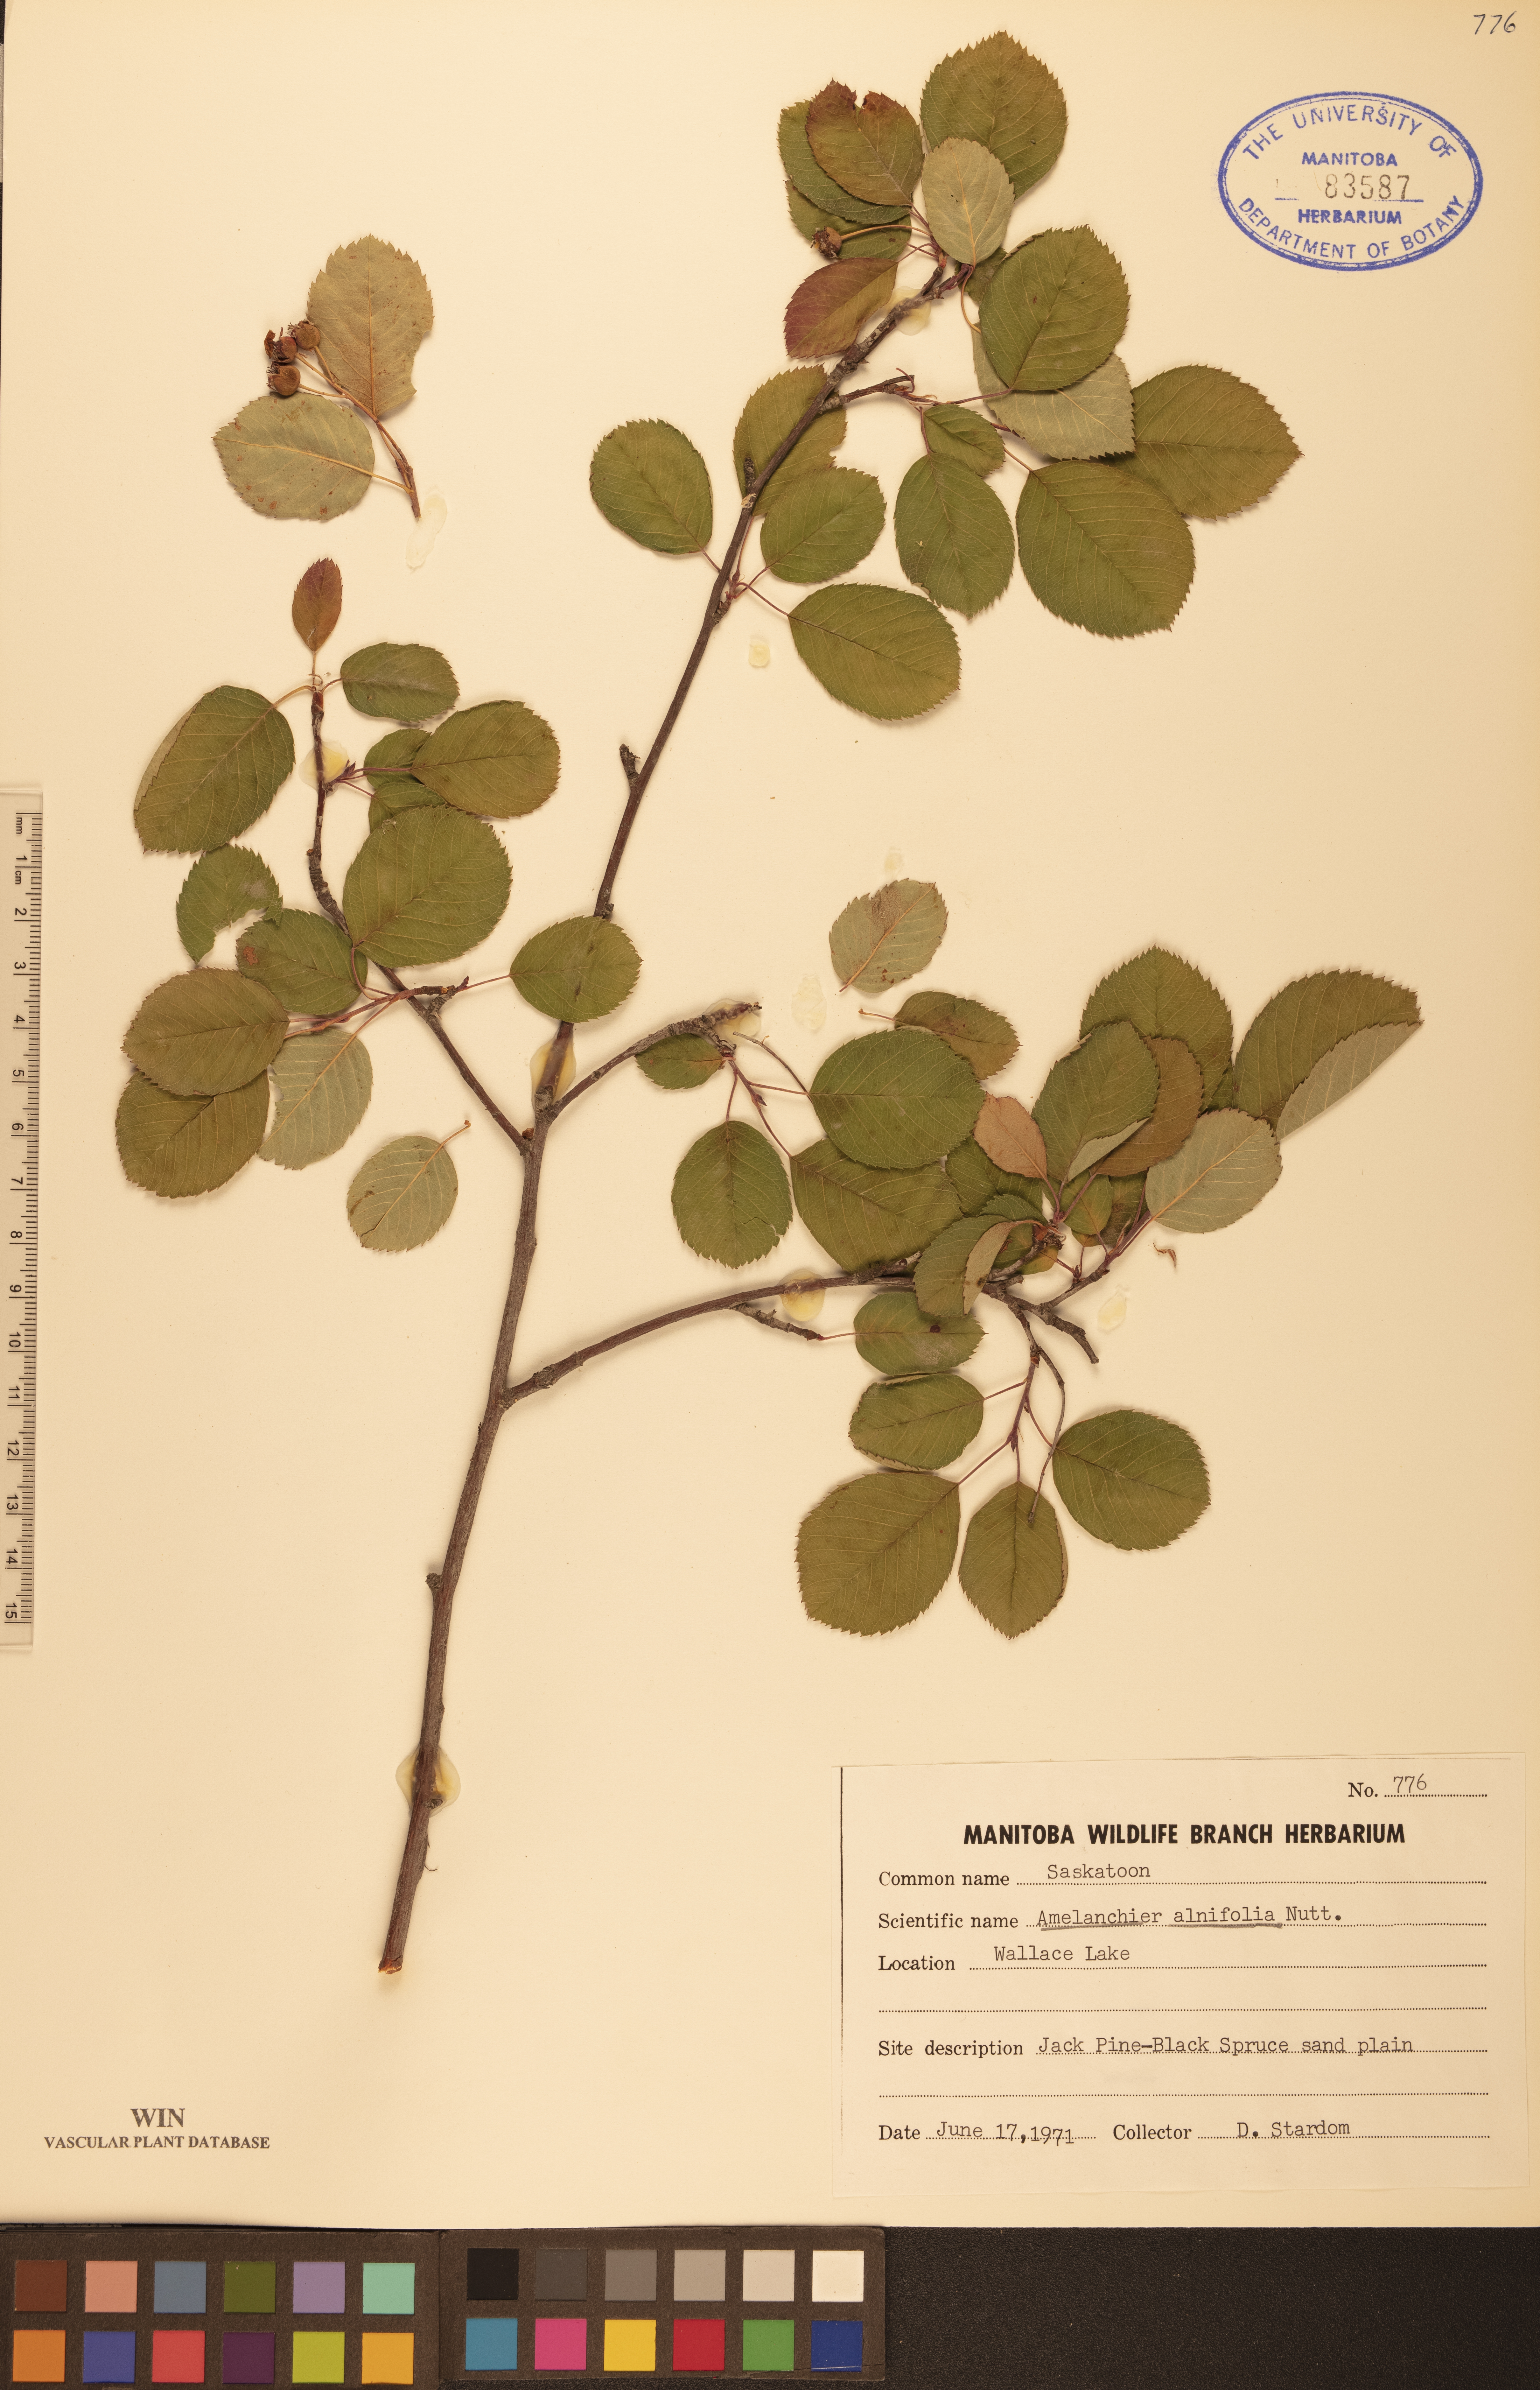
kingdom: Plantae
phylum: Tracheophyta
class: Magnoliopsida
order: Rosales
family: Rosaceae
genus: Amelanchier
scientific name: Amelanchier alnifolia
